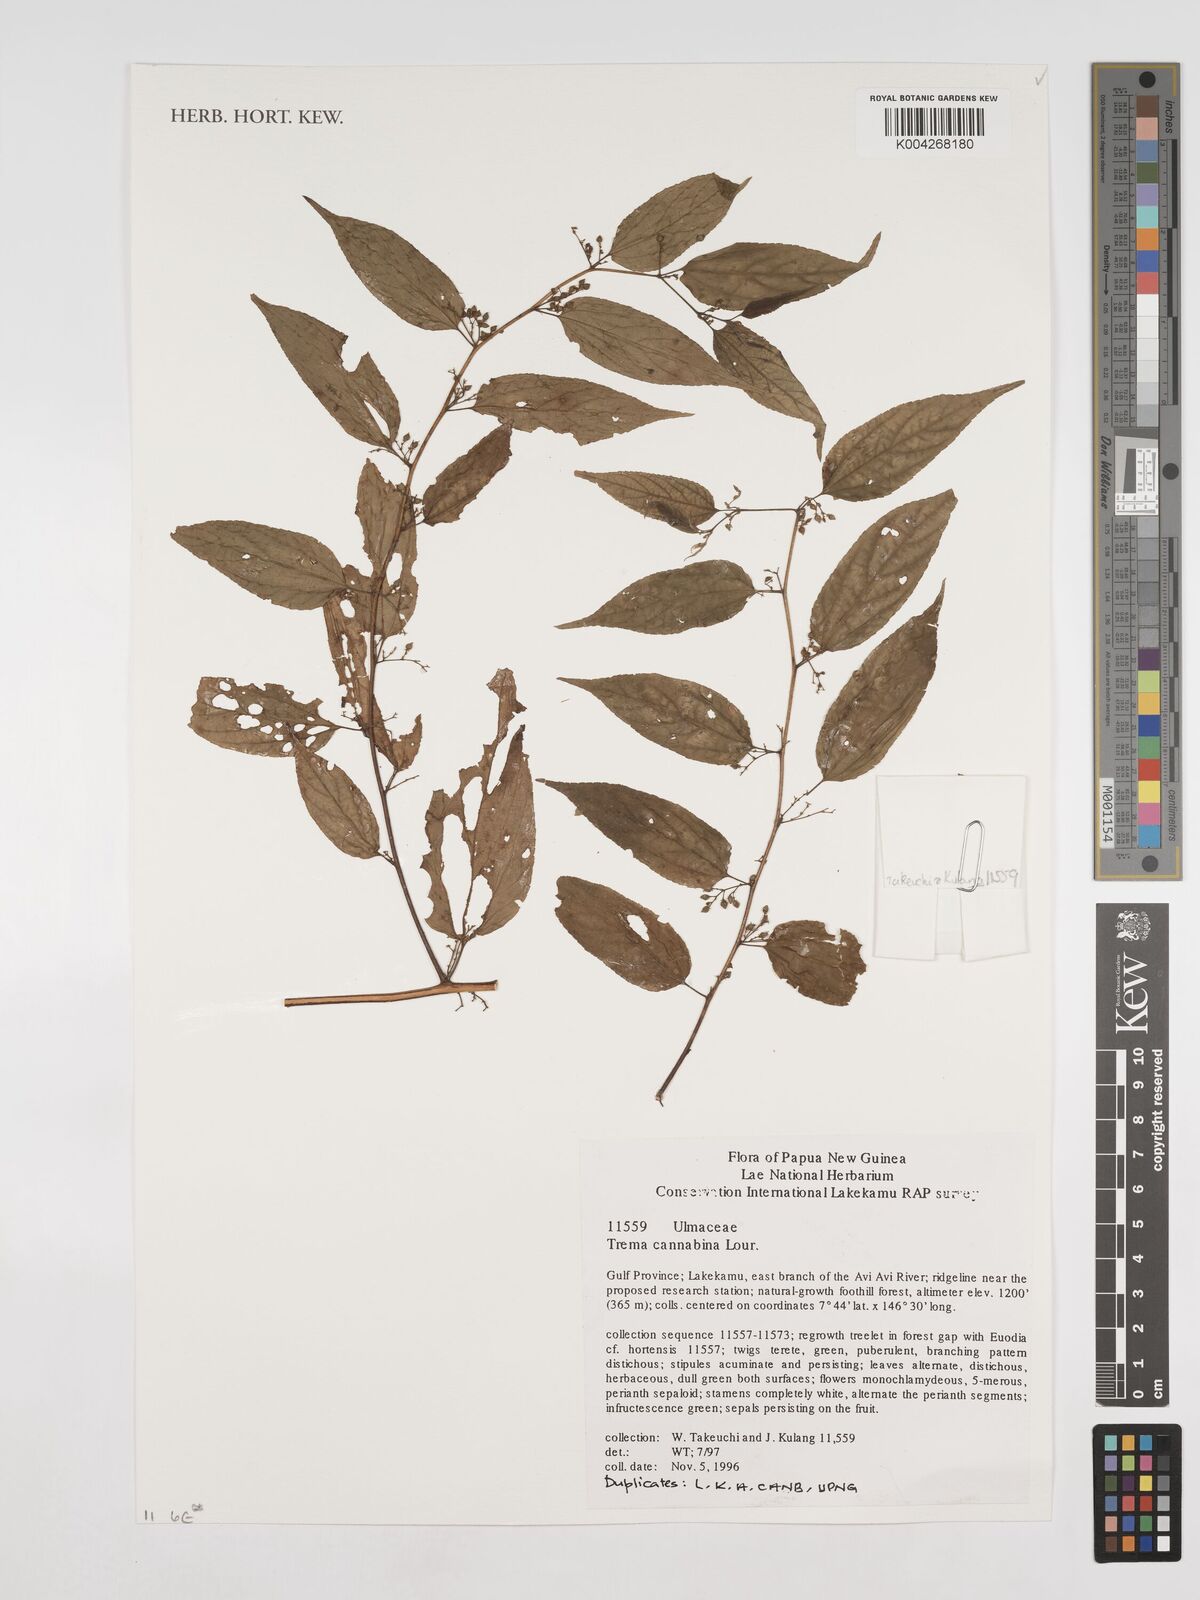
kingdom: Plantae
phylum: Tracheophyta
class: Magnoliopsida
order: Rosales
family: Cannabaceae
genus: Trema
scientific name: Trema
